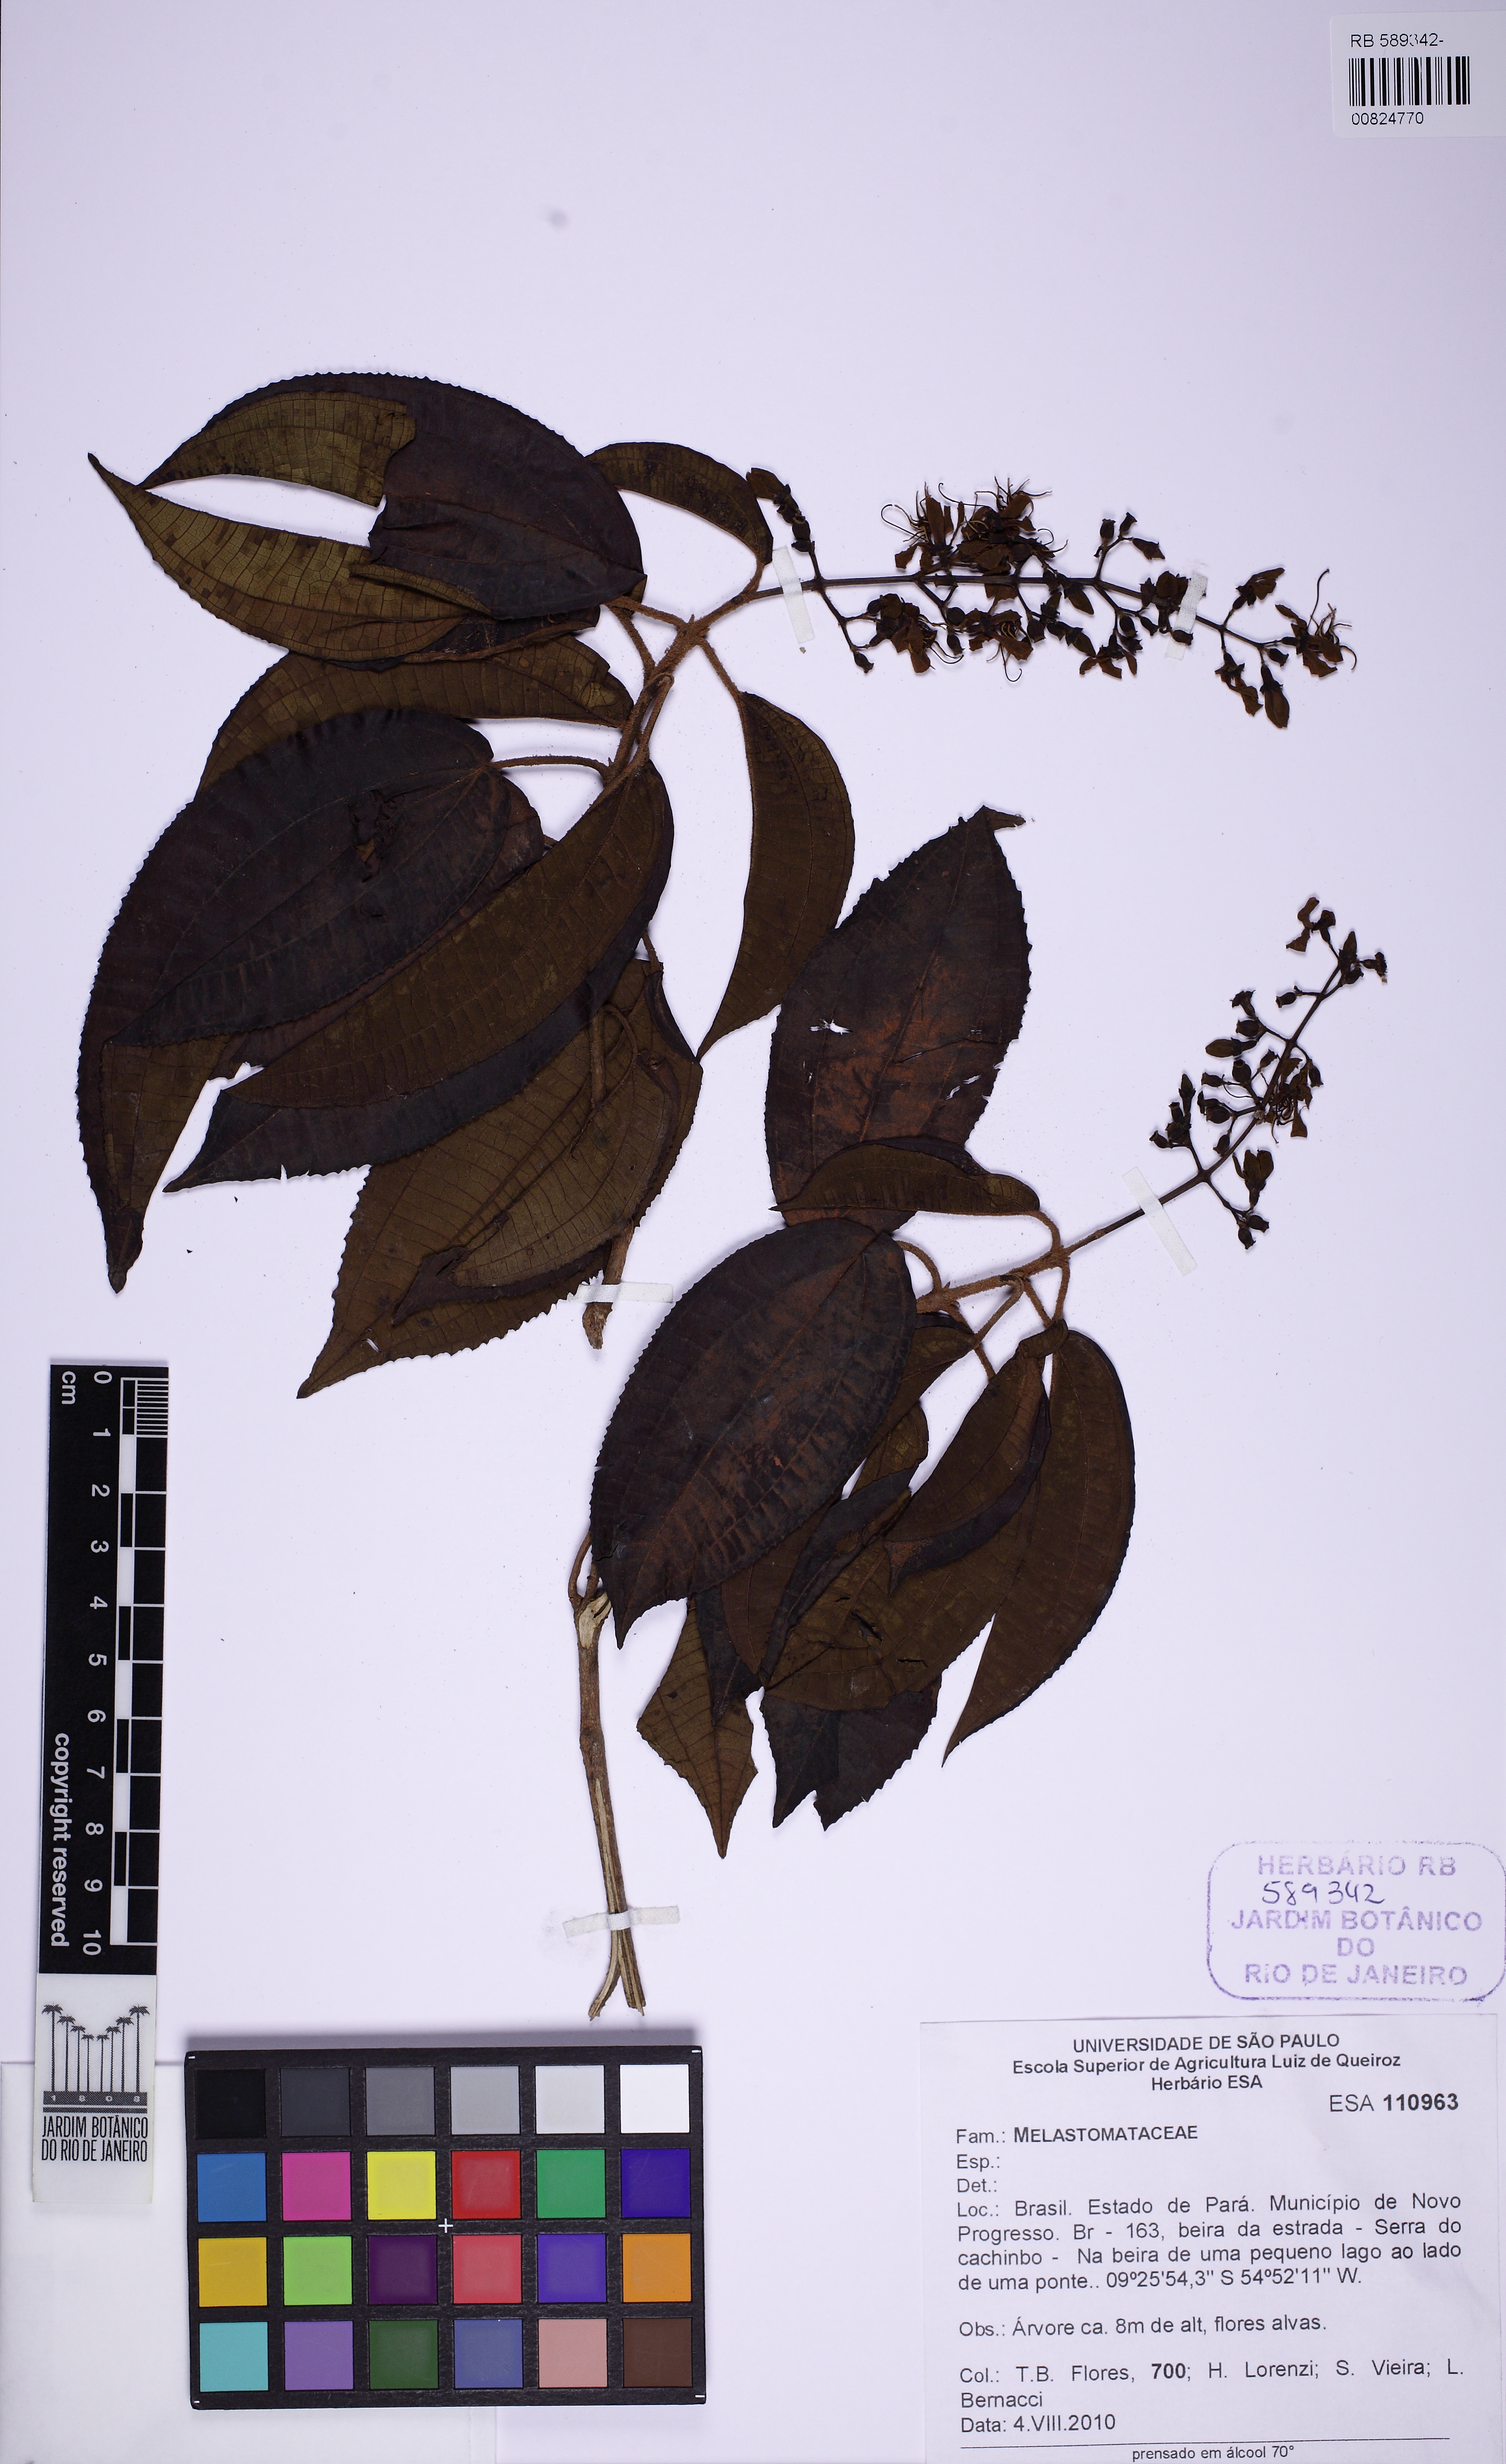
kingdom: Plantae
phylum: Tracheophyta
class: Magnoliopsida
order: Myrtales
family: Melastomataceae
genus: Miconia
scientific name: Miconia staminea
